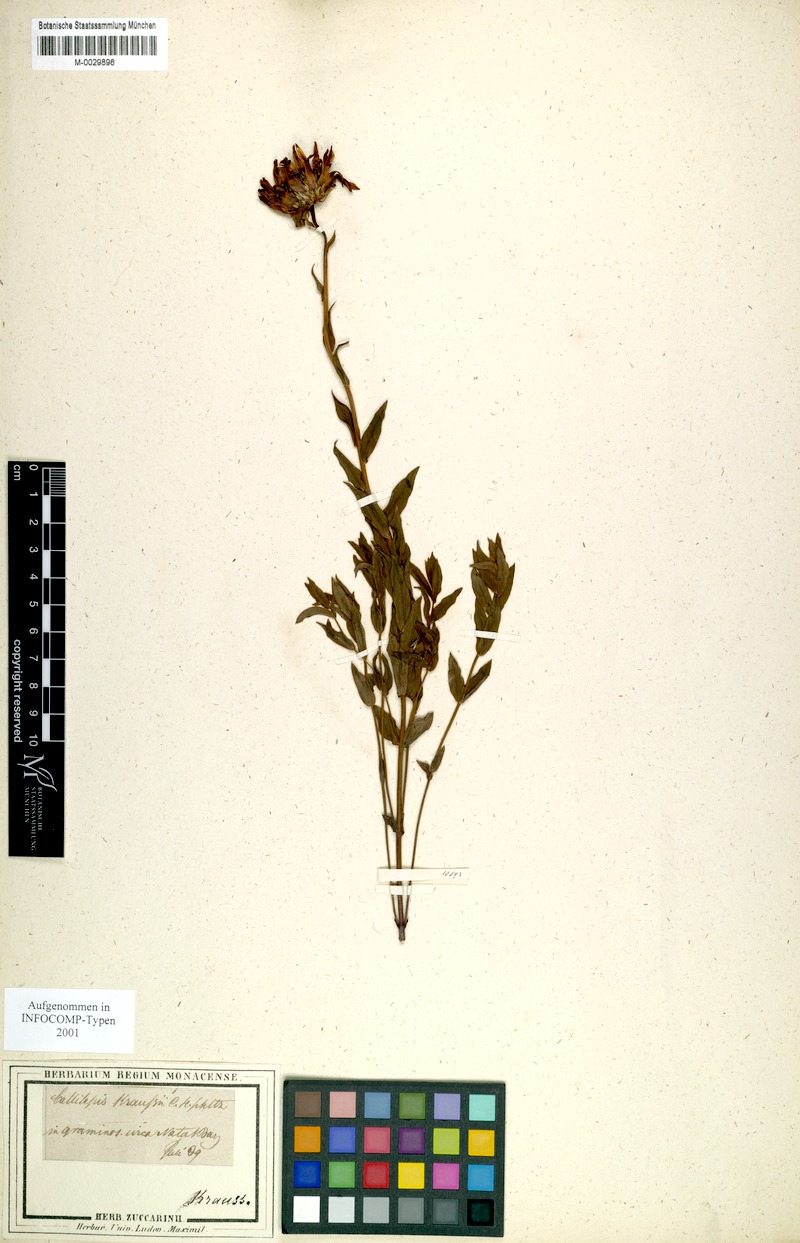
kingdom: Plantae
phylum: Tracheophyta
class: Magnoliopsida
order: Asterales
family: Asteraceae
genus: Callilepis
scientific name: Callilepis laureola
